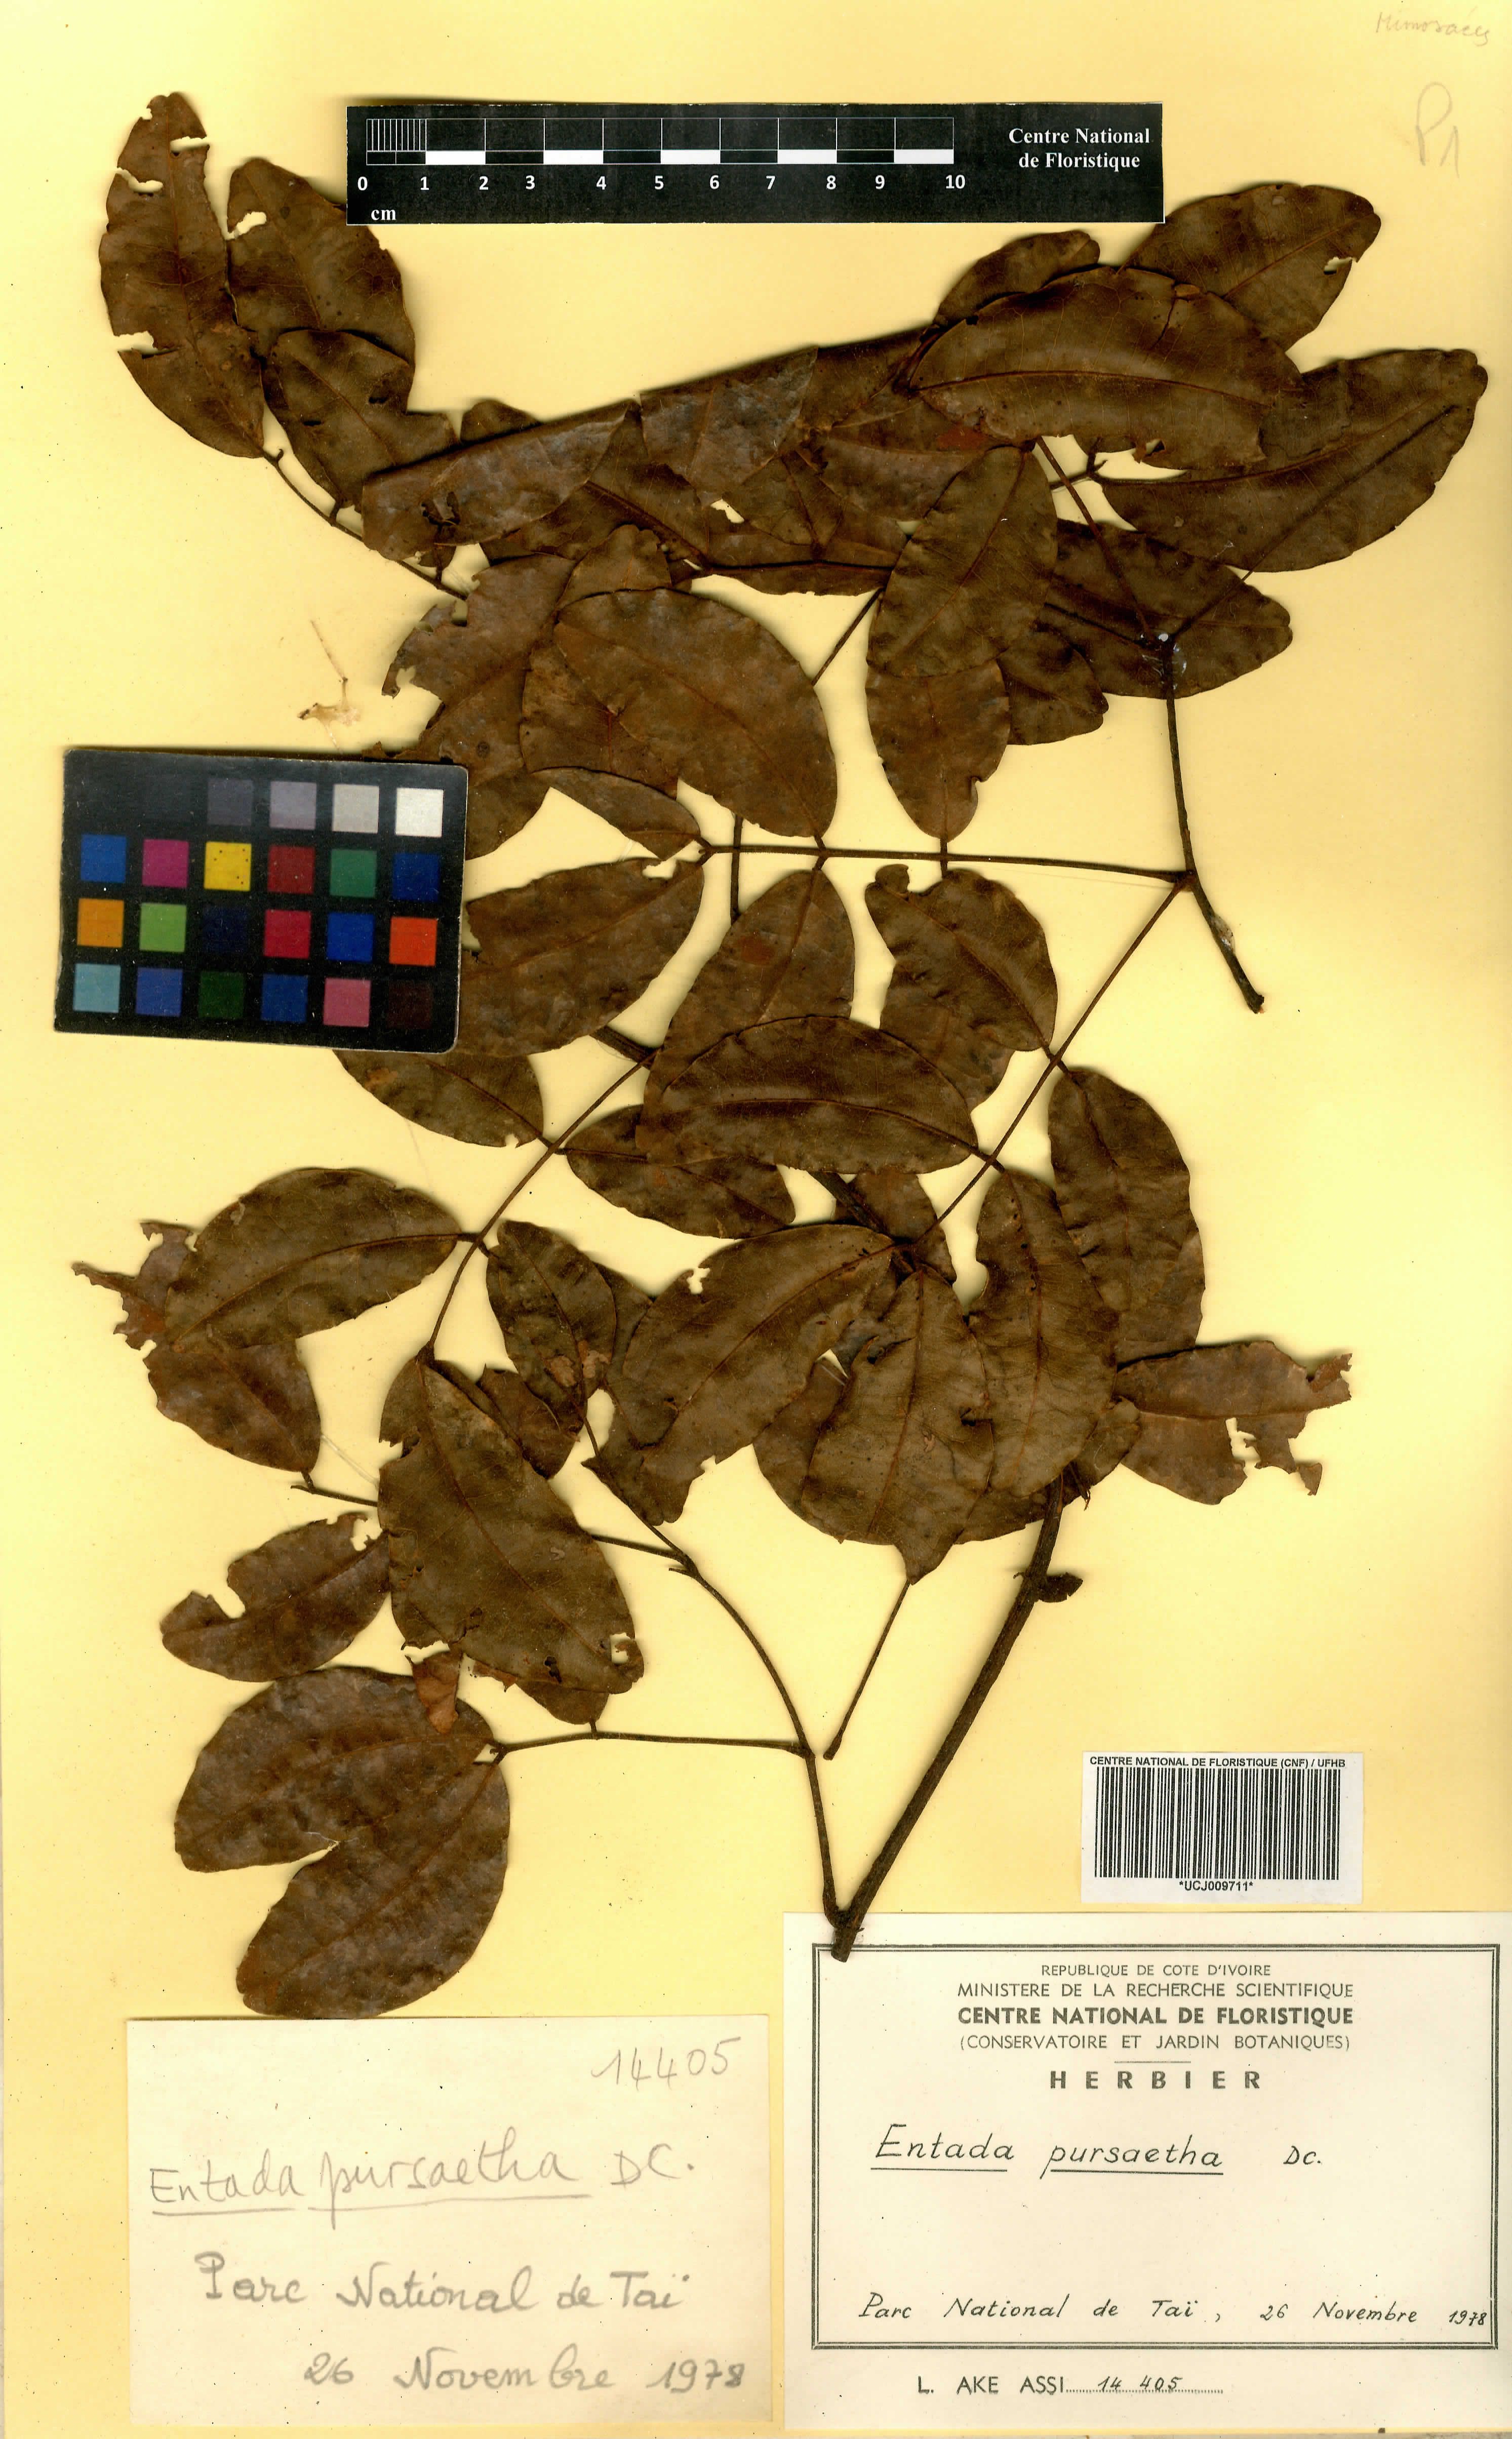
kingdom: Plantae
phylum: Tracheophyta
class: Magnoliopsida
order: Fabales
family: Fabaceae
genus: Entada
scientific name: Entada rheedei
